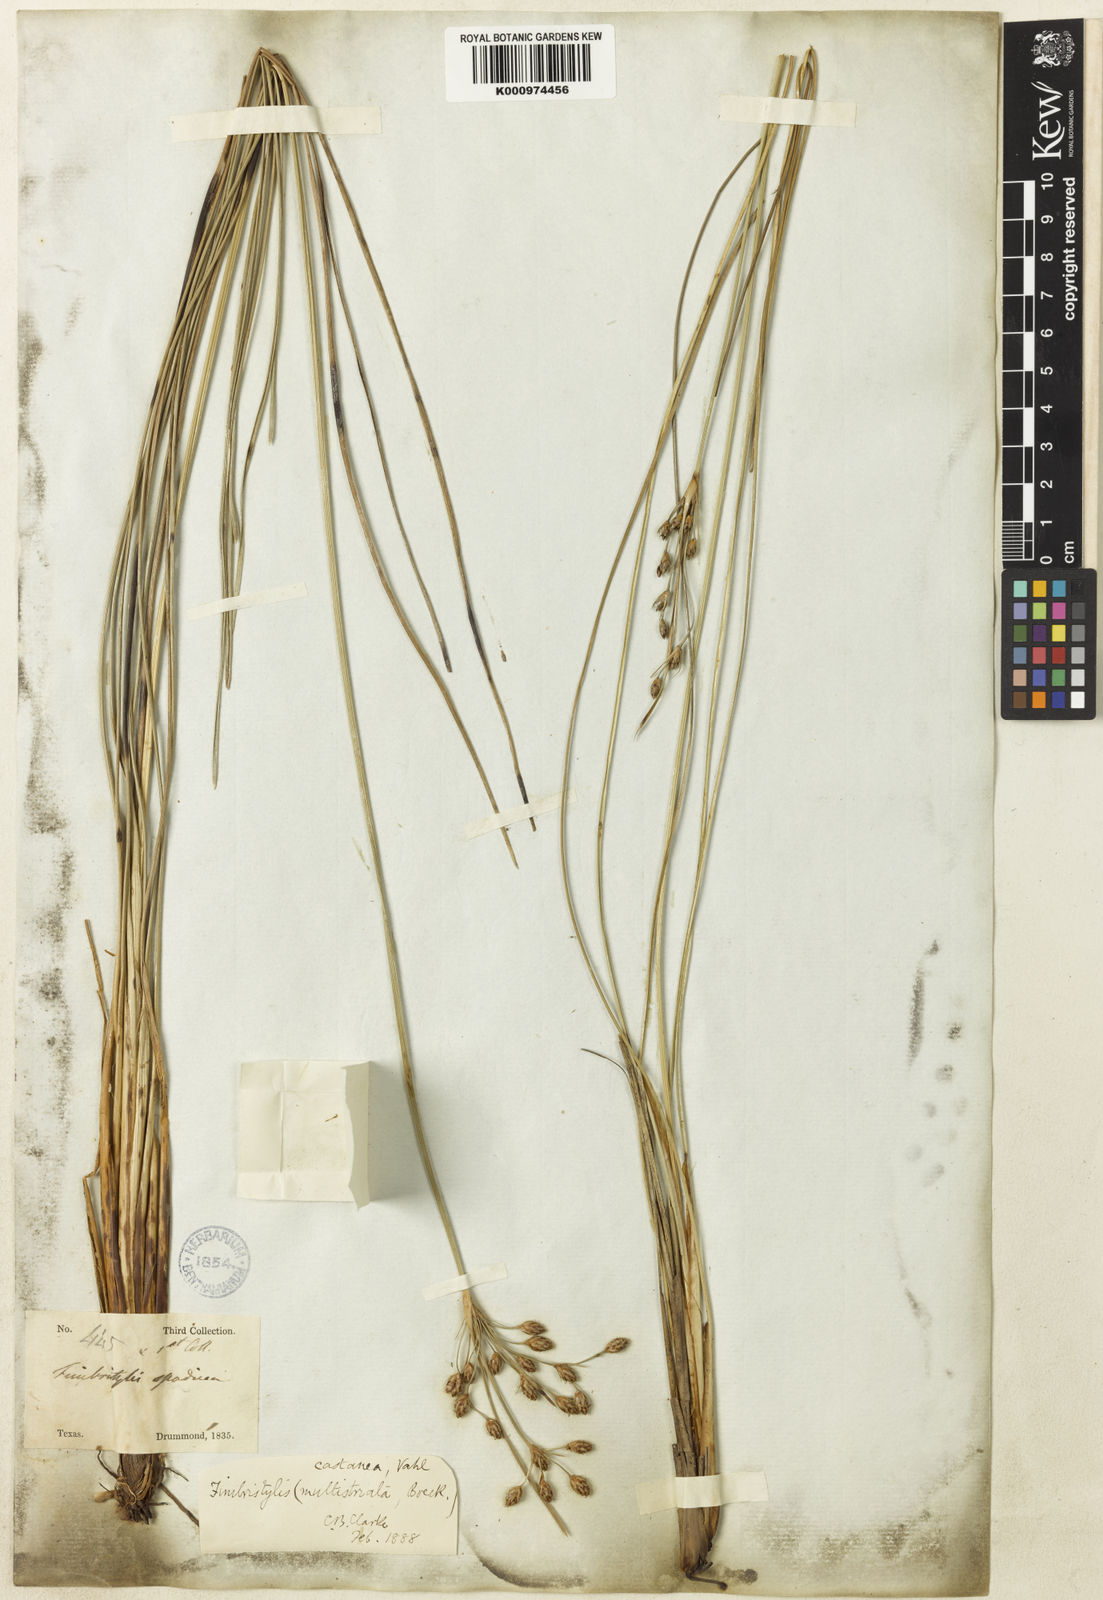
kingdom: Plantae
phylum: Tracheophyta
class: Liliopsida
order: Poales
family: Cyperaceae
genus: Fimbristylis
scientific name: Fimbristylis puberula
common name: Hairy fimbristylis
